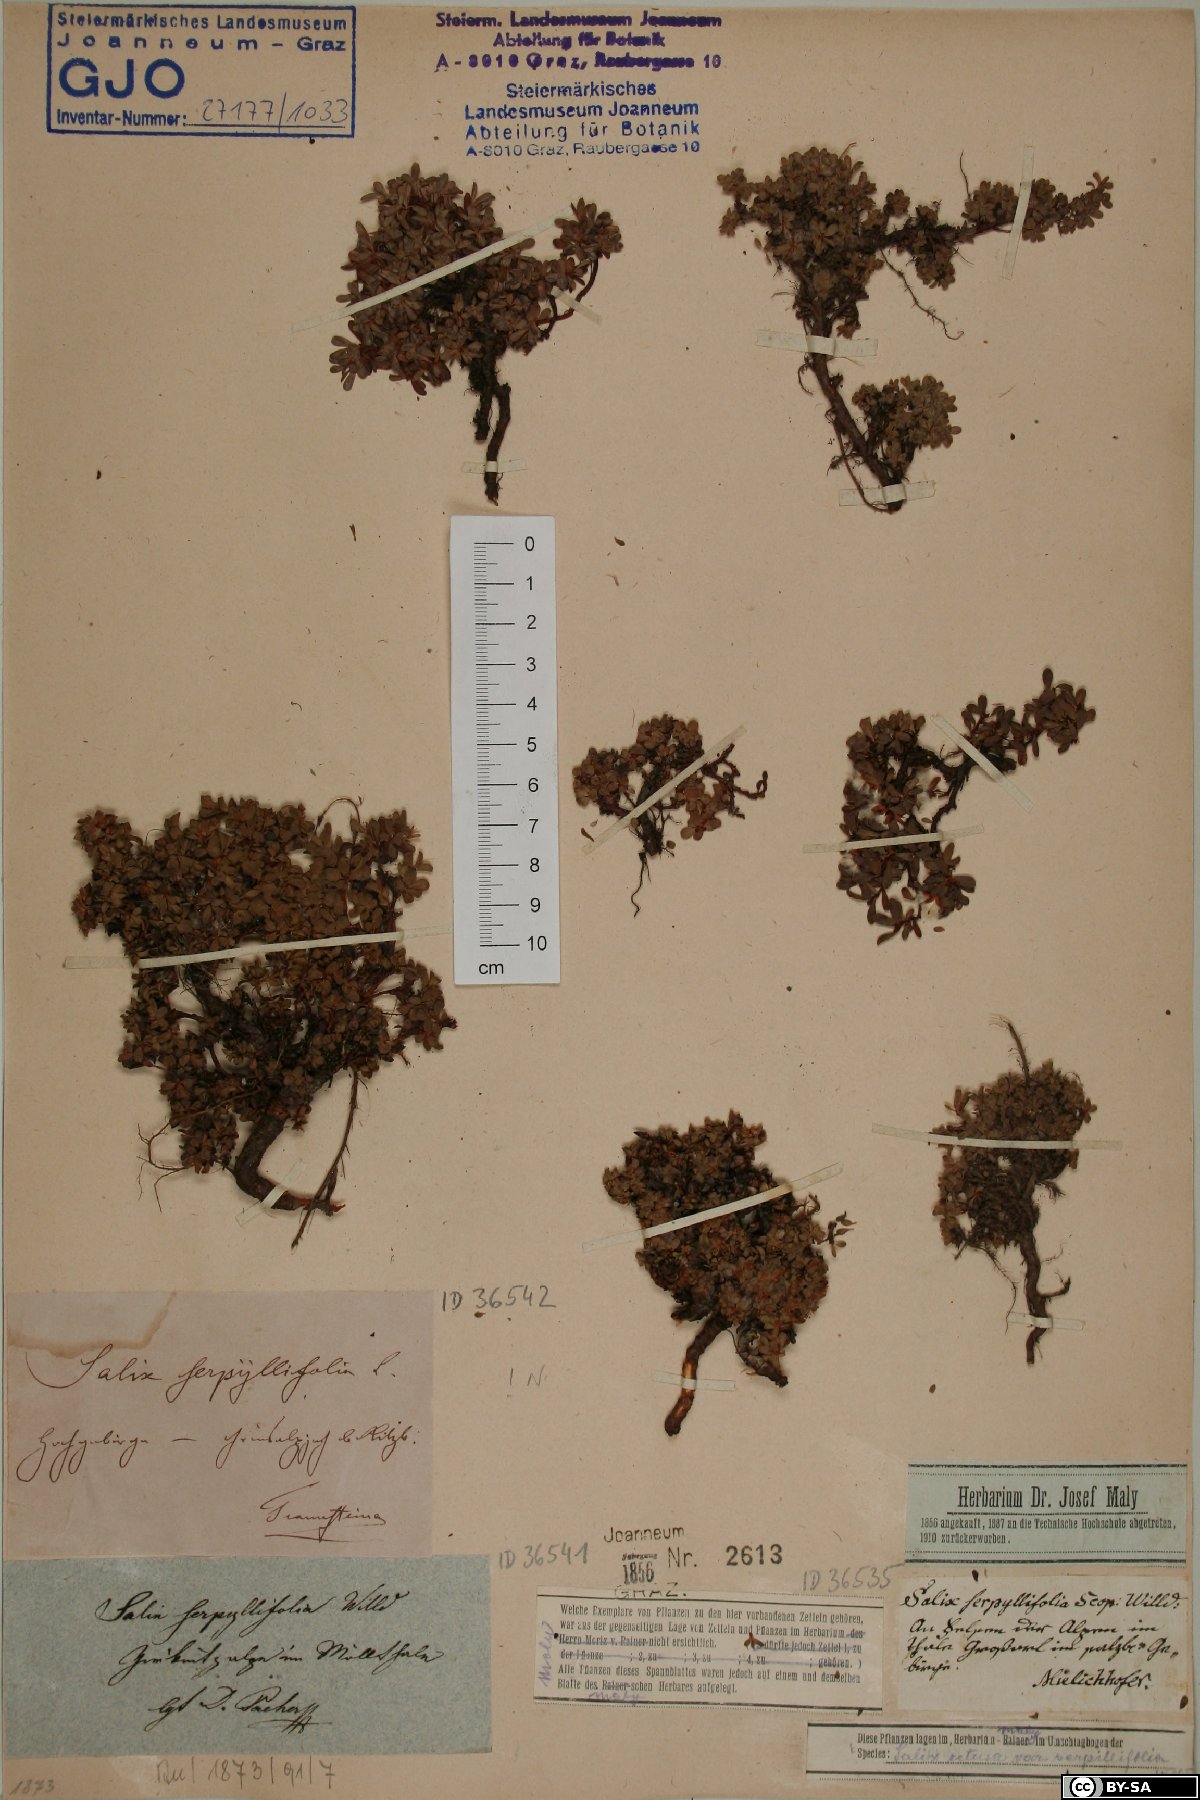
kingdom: Plantae
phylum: Tracheophyta
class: Magnoliopsida
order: Malpighiales
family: Salicaceae
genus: Salix
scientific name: Salix serpillifolia
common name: Thyme-leaf willow
